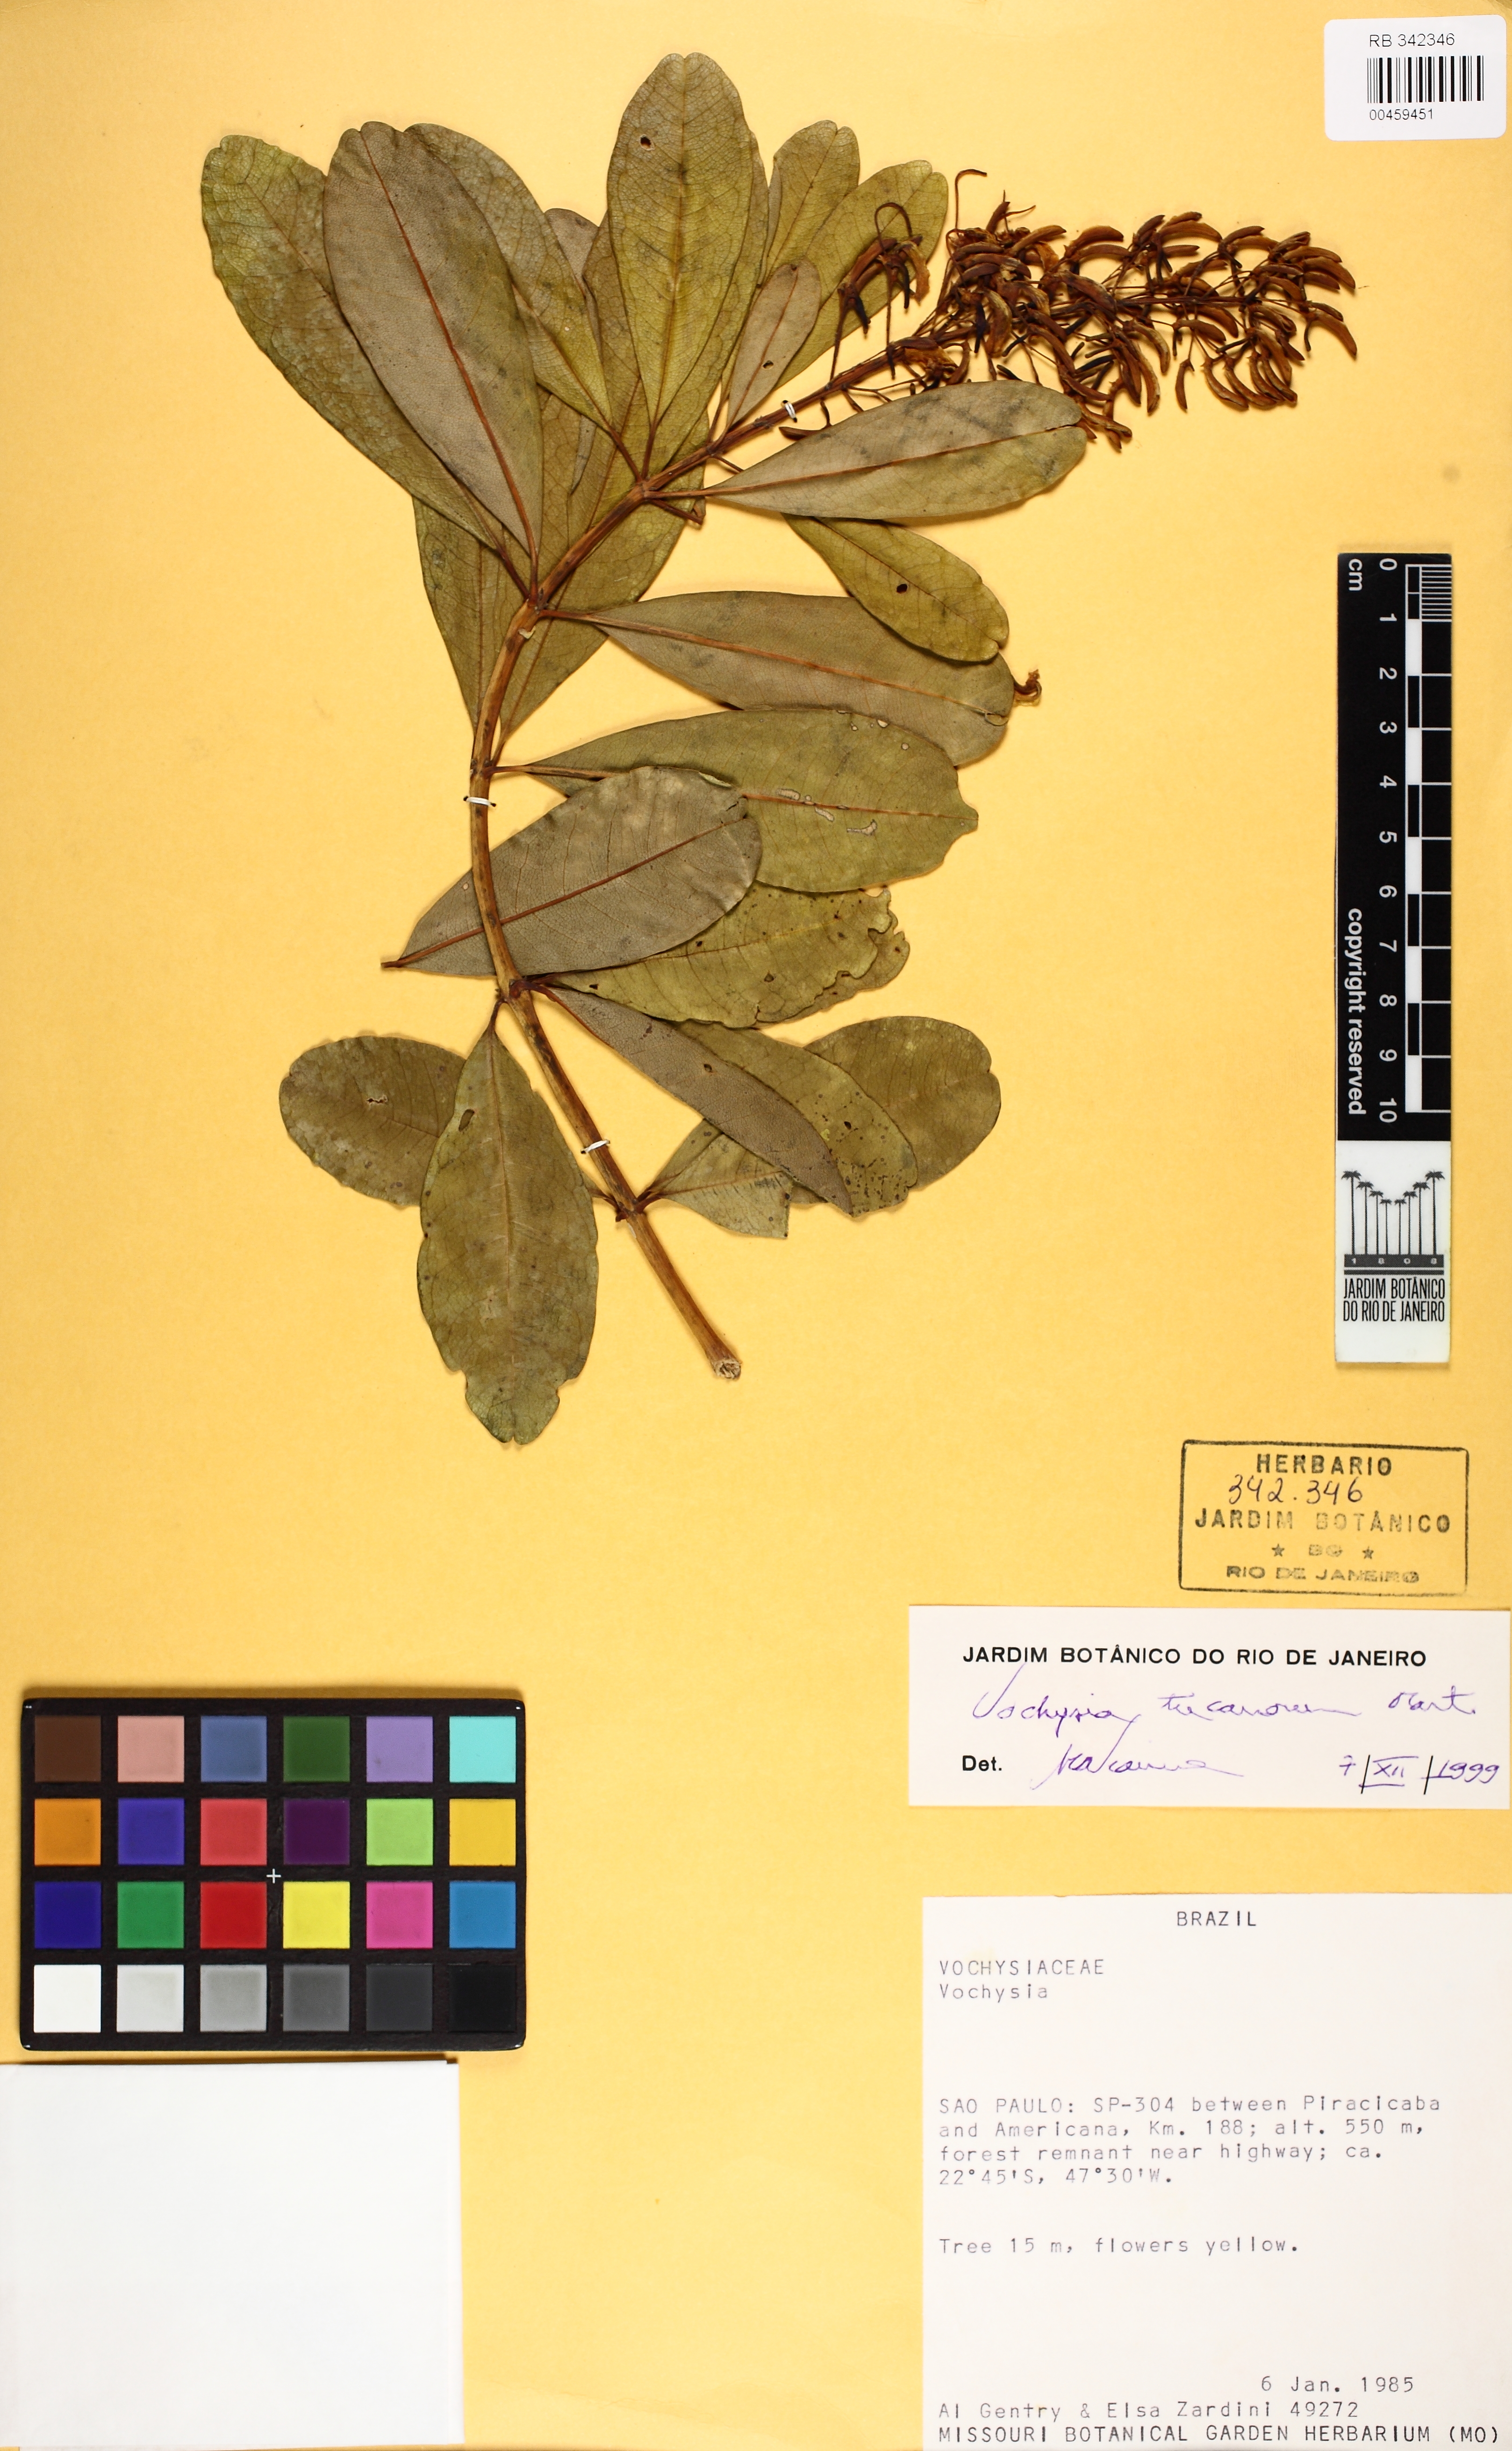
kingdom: Plantae
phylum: Tracheophyta
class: Magnoliopsida
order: Myrtales
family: Vochysiaceae
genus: Vochysia
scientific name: Vochysia tucanorum
